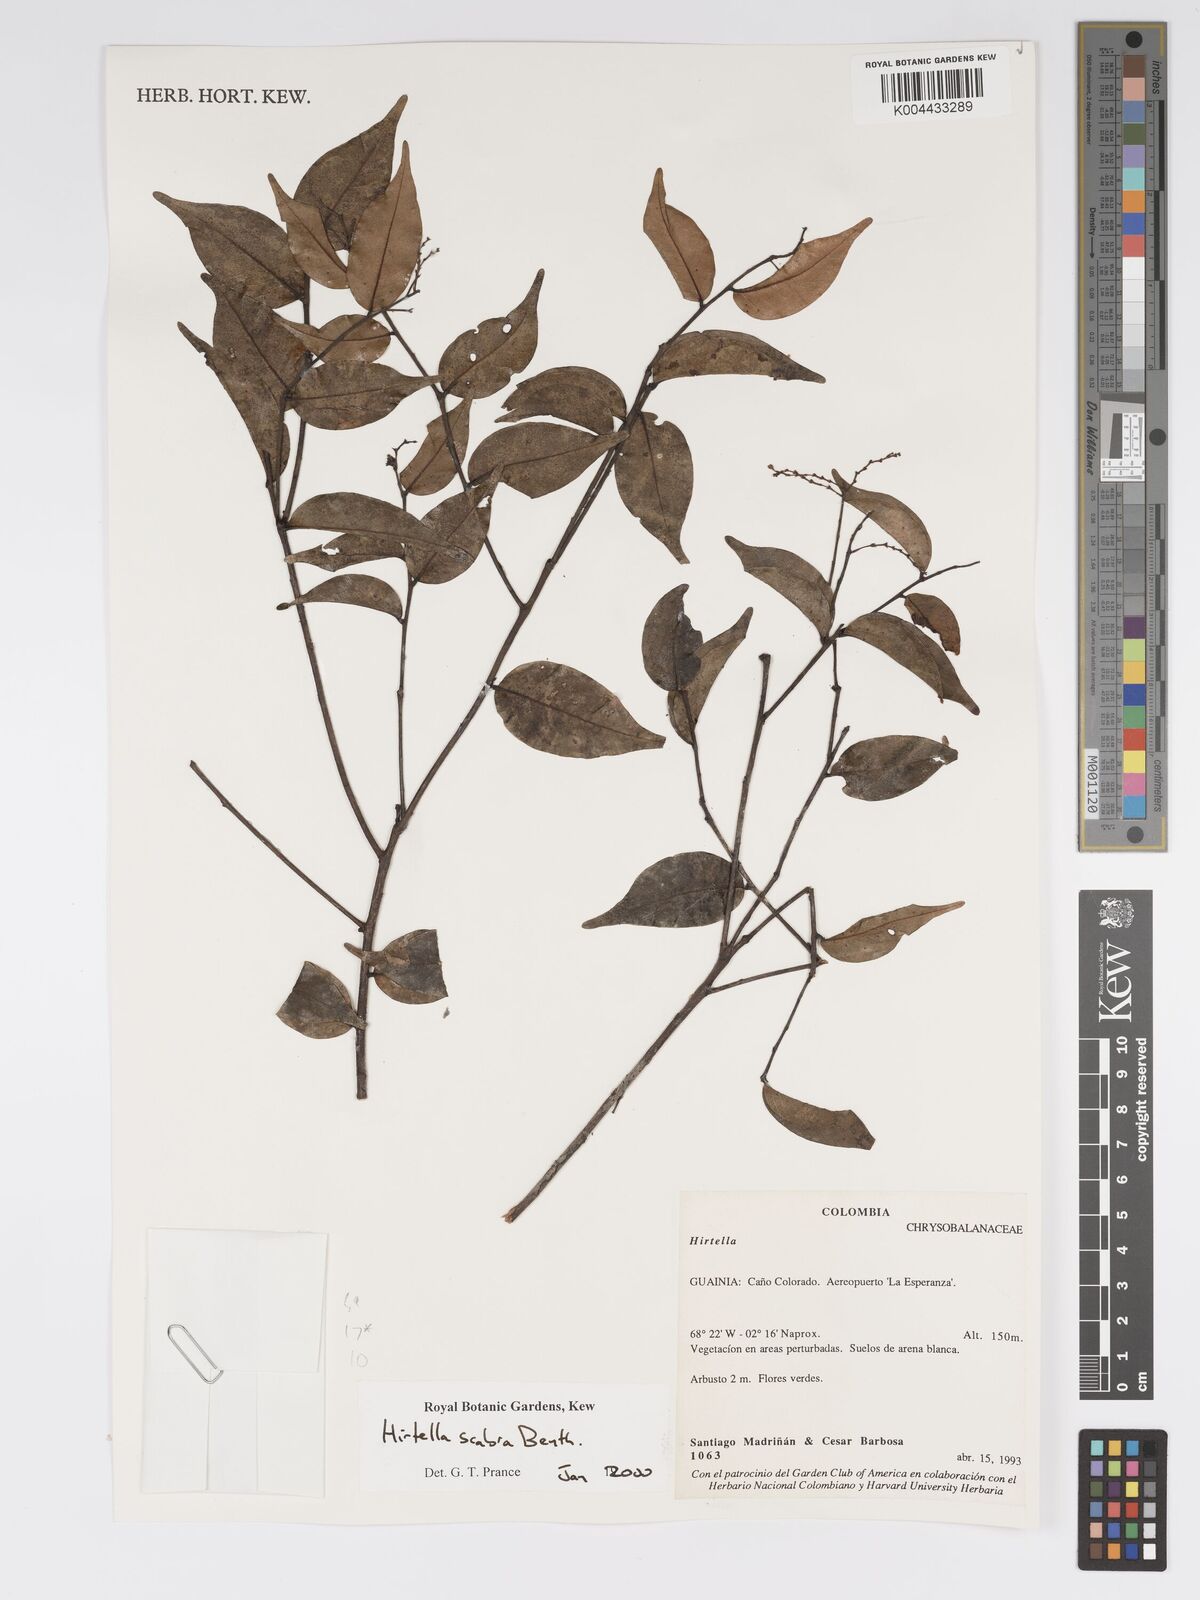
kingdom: Plantae
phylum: Tracheophyta
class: Magnoliopsida
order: Malpighiales
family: Chrysobalanaceae
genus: Hirtella
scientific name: Hirtella scabra
